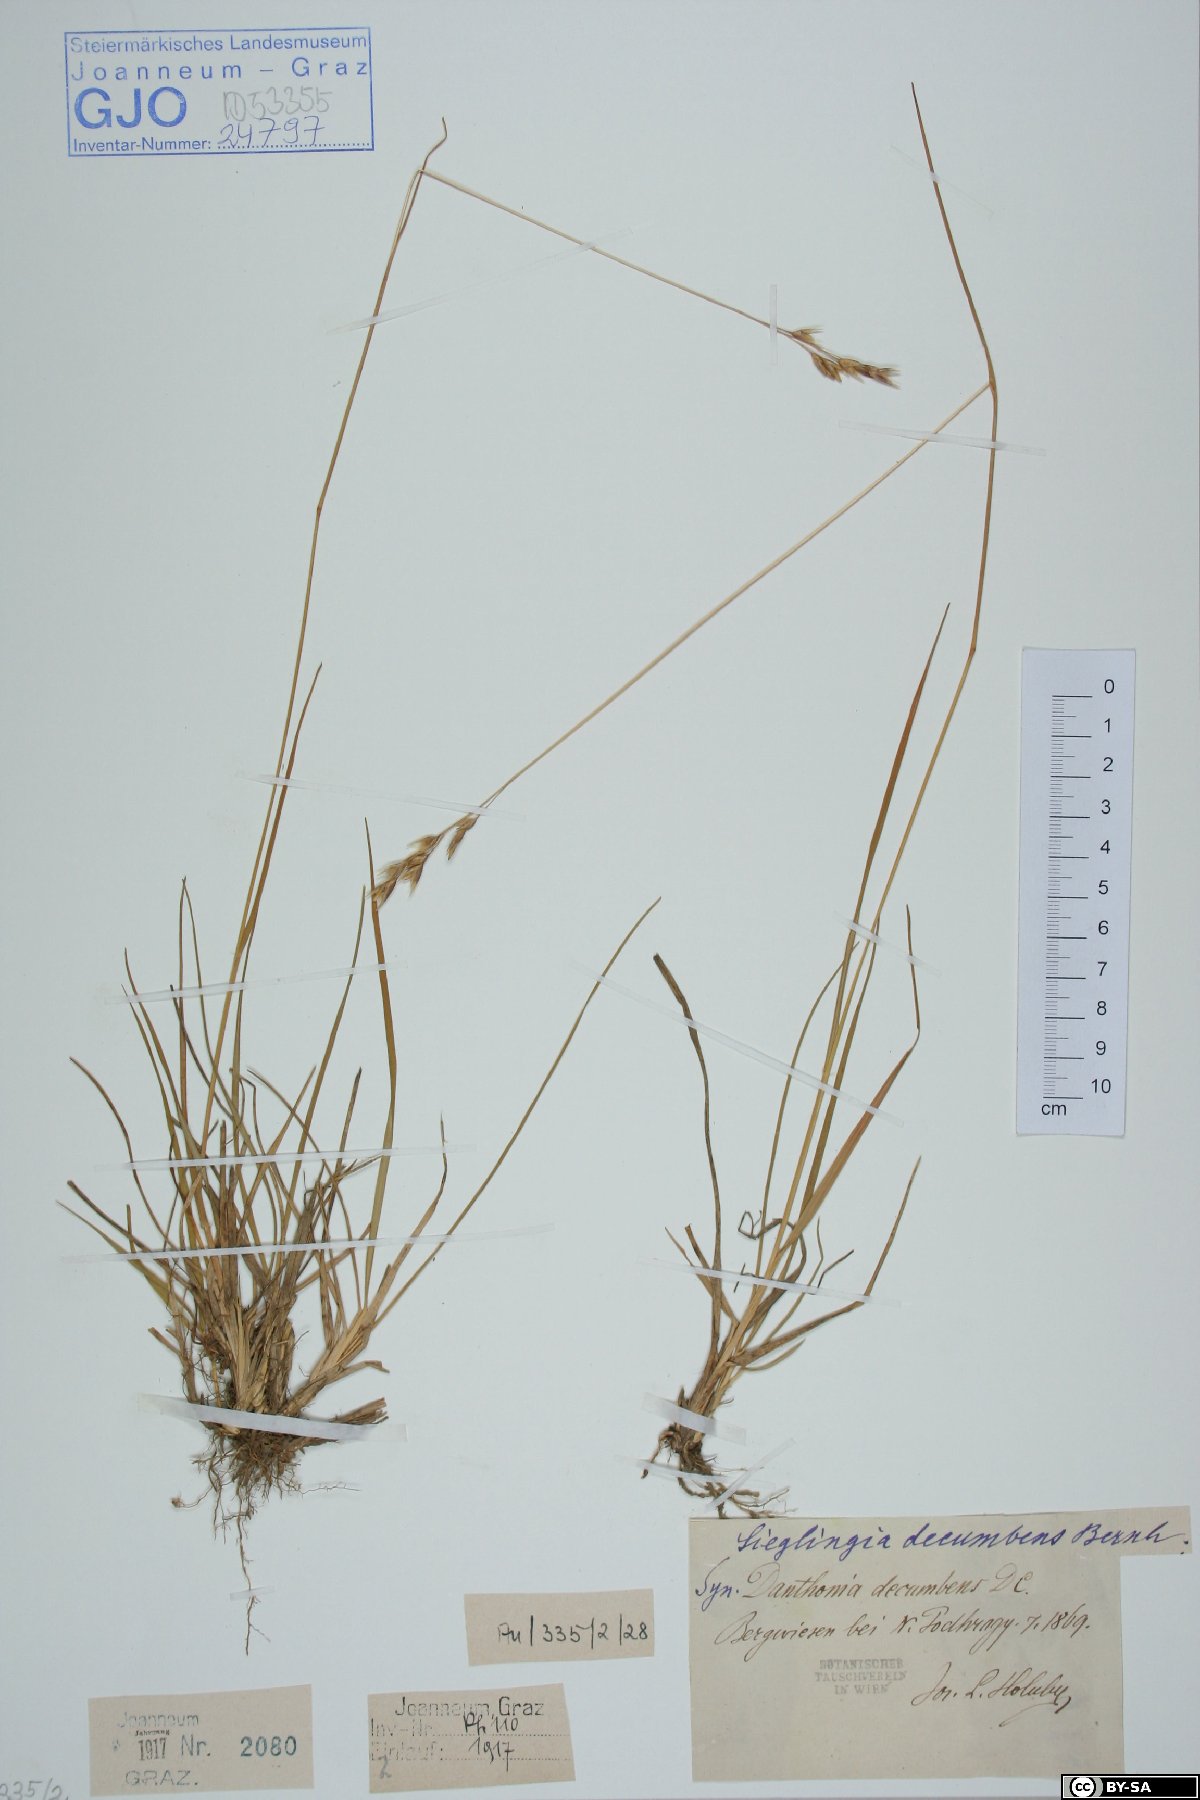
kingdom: Plantae
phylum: Tracheophyta
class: Liliopsida
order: Poales
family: Poaceae
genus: Danthonia
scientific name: Danthonia decumbens
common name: Common heathgrass
